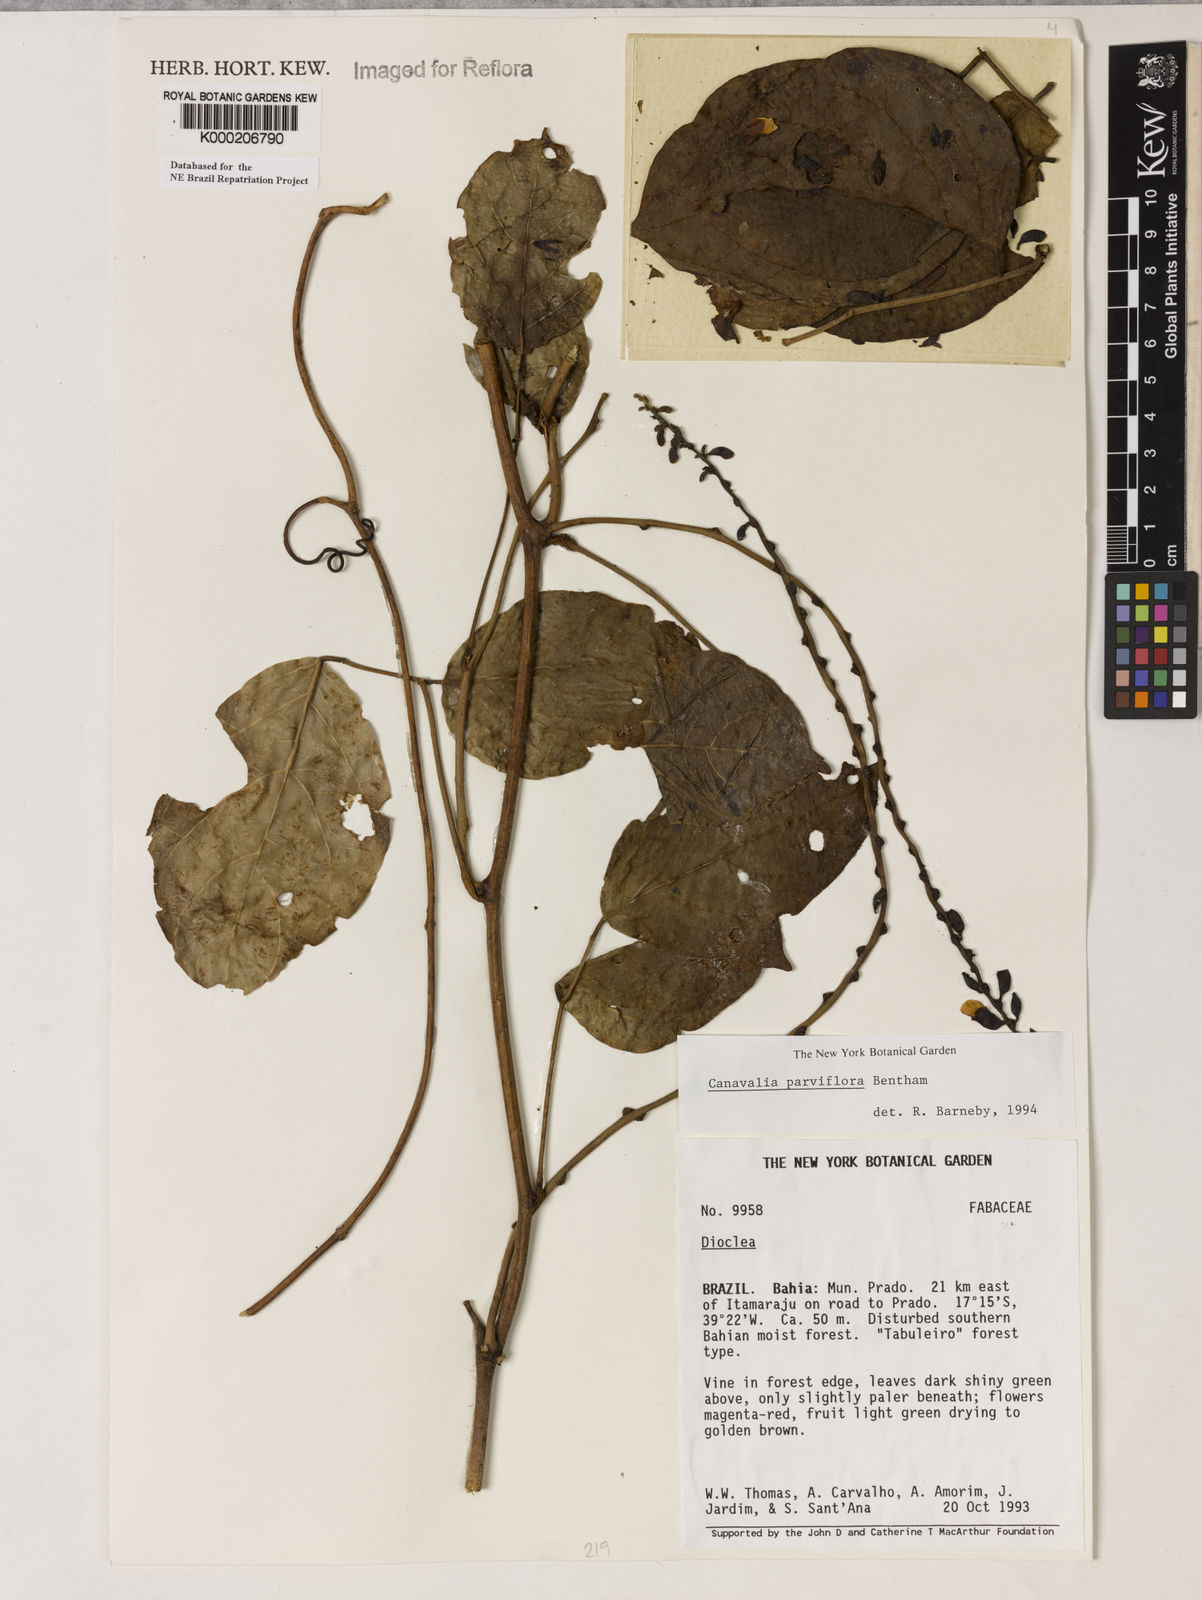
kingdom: Plantae
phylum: Tracheophyta
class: Magnoliopsida
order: Fabales
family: Fabaceae
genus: Canavalia
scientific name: Canavalia parviflora
